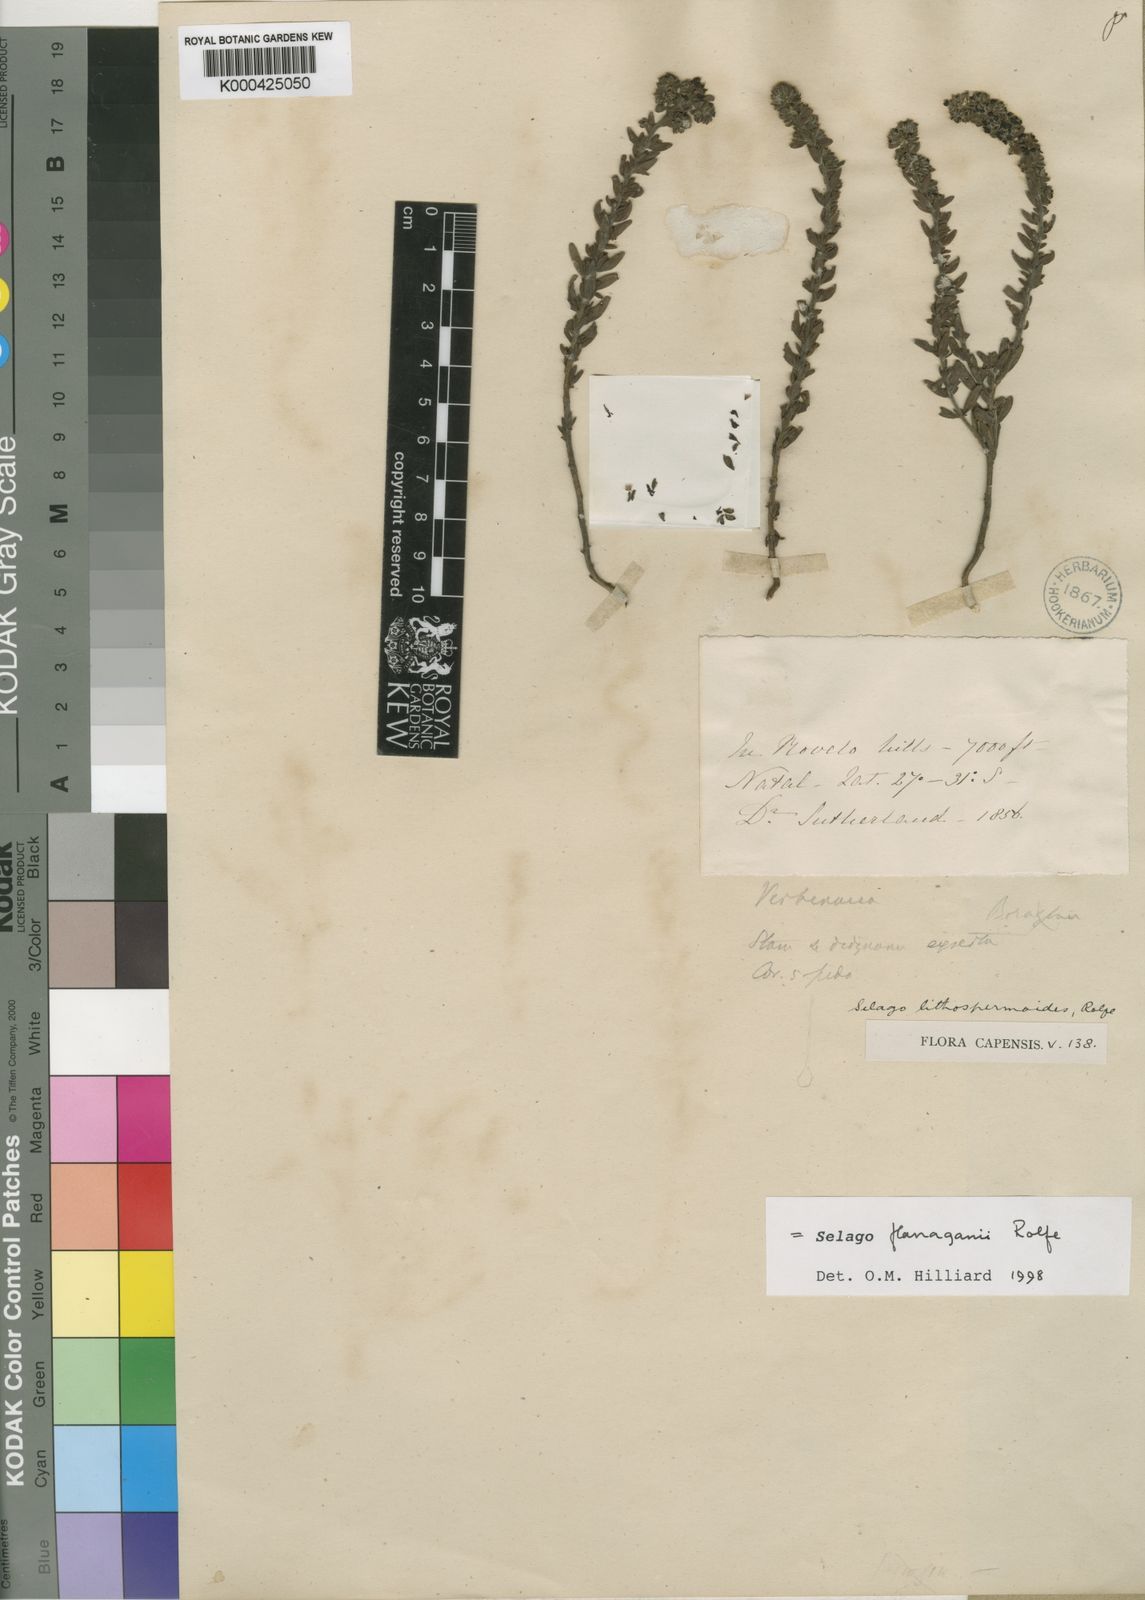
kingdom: Plantae
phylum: Tracheophyta
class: Magnoliopsida
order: Lamiales
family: Scrophulariaceae
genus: Selago
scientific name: Selago flanaganii
